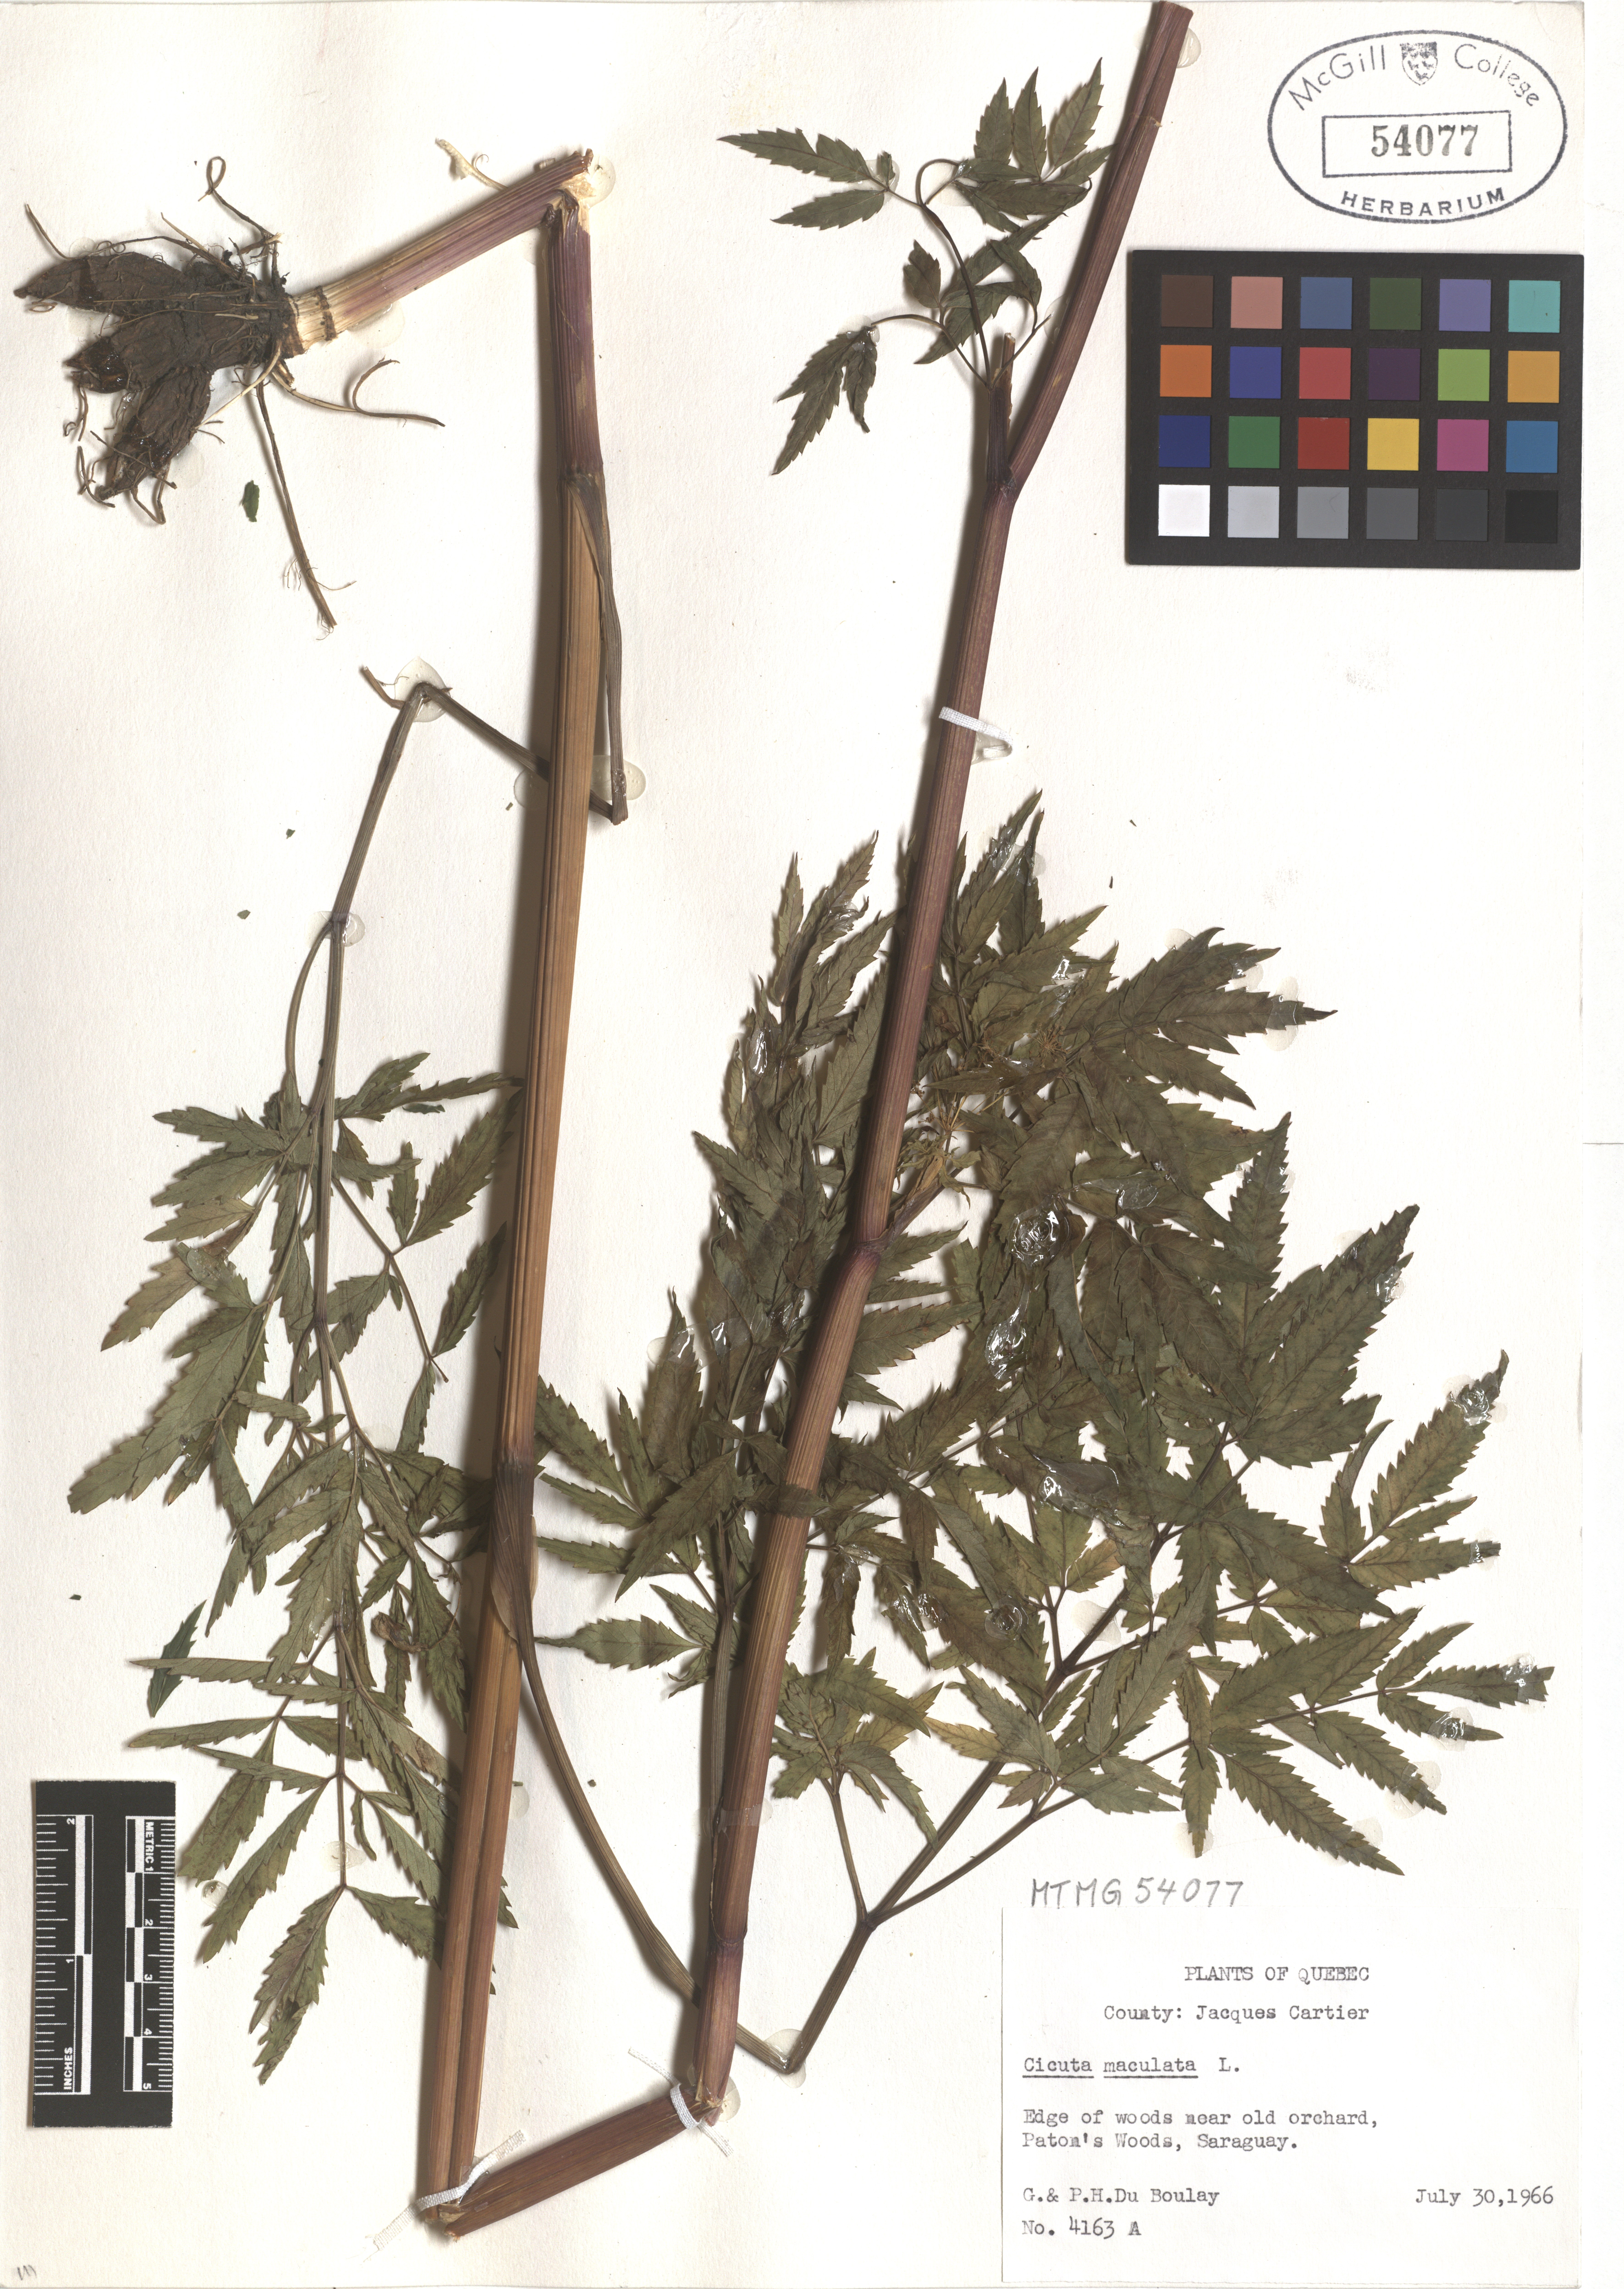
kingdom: Plantae
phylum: Tracheophyta
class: Magnoliopsida
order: Apiales
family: Apiaceae
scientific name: Apiaceae
